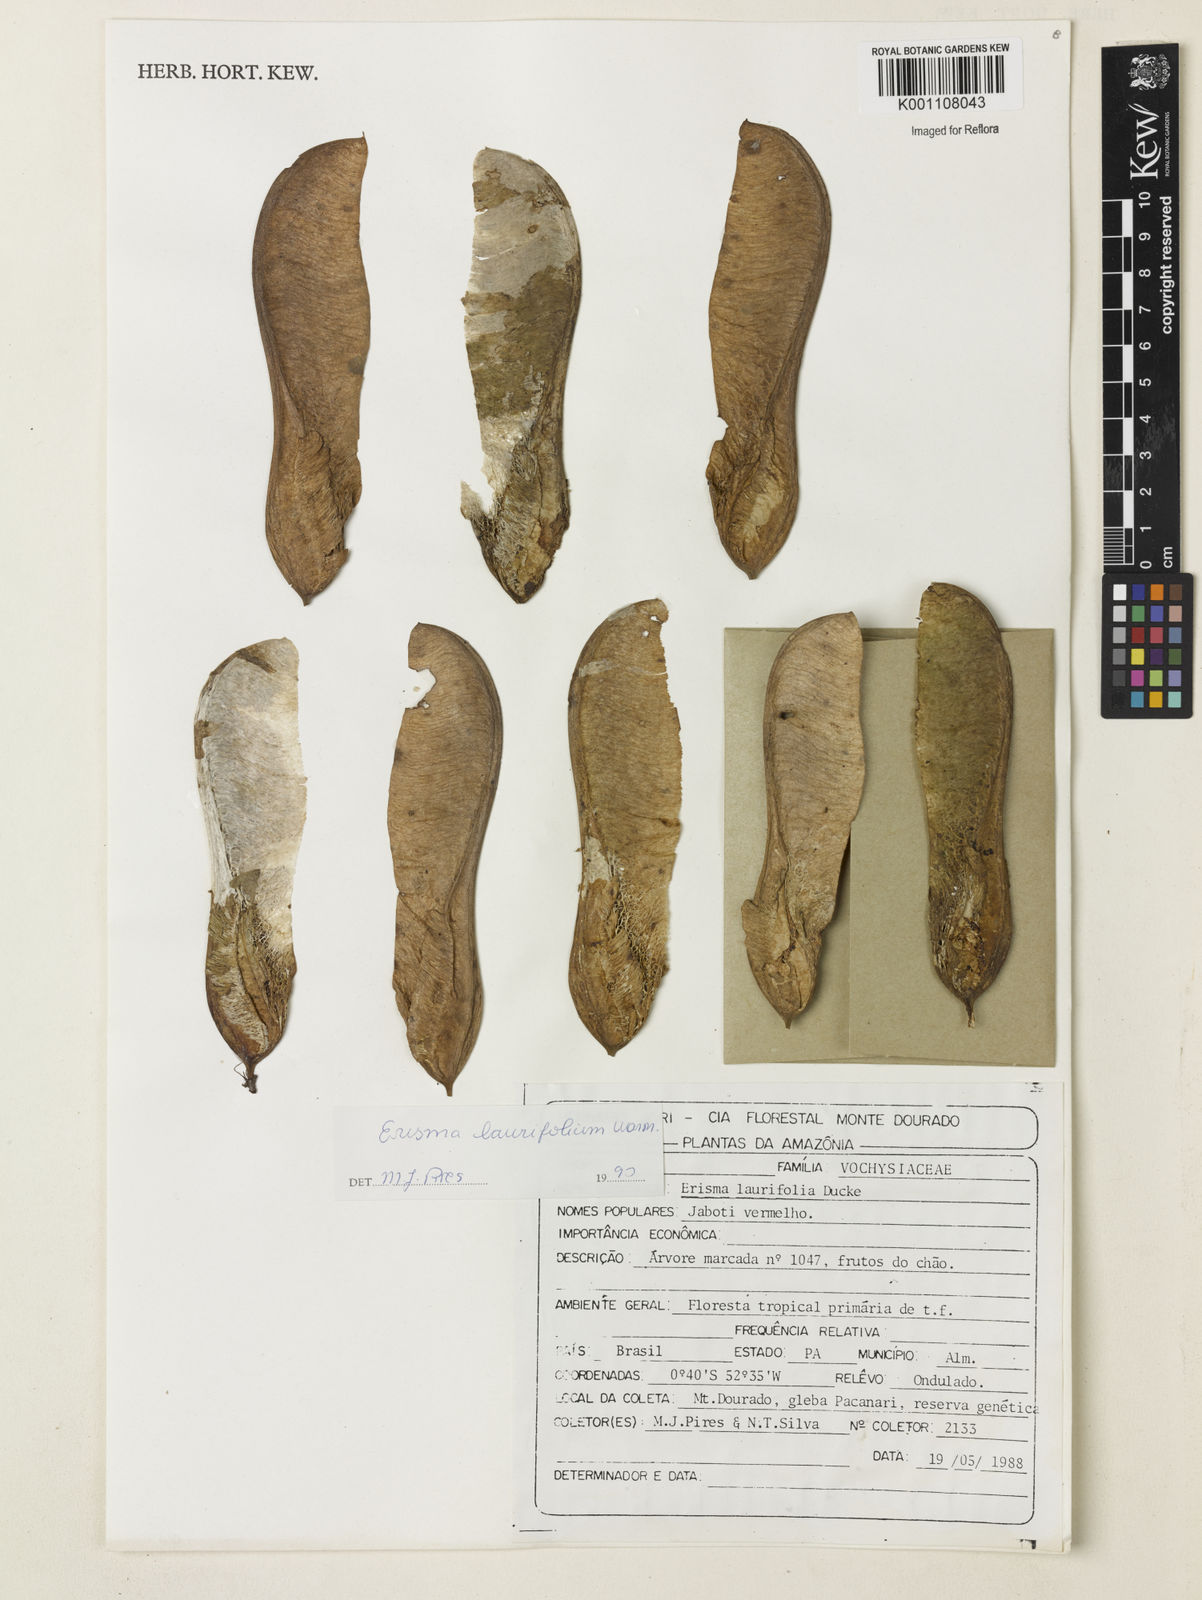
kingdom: Plantae
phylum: Tracheophyta
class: Magnoliopsida
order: Myrtales
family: Vochysiaceae
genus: Erisma
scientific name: Erisma laurifolium
